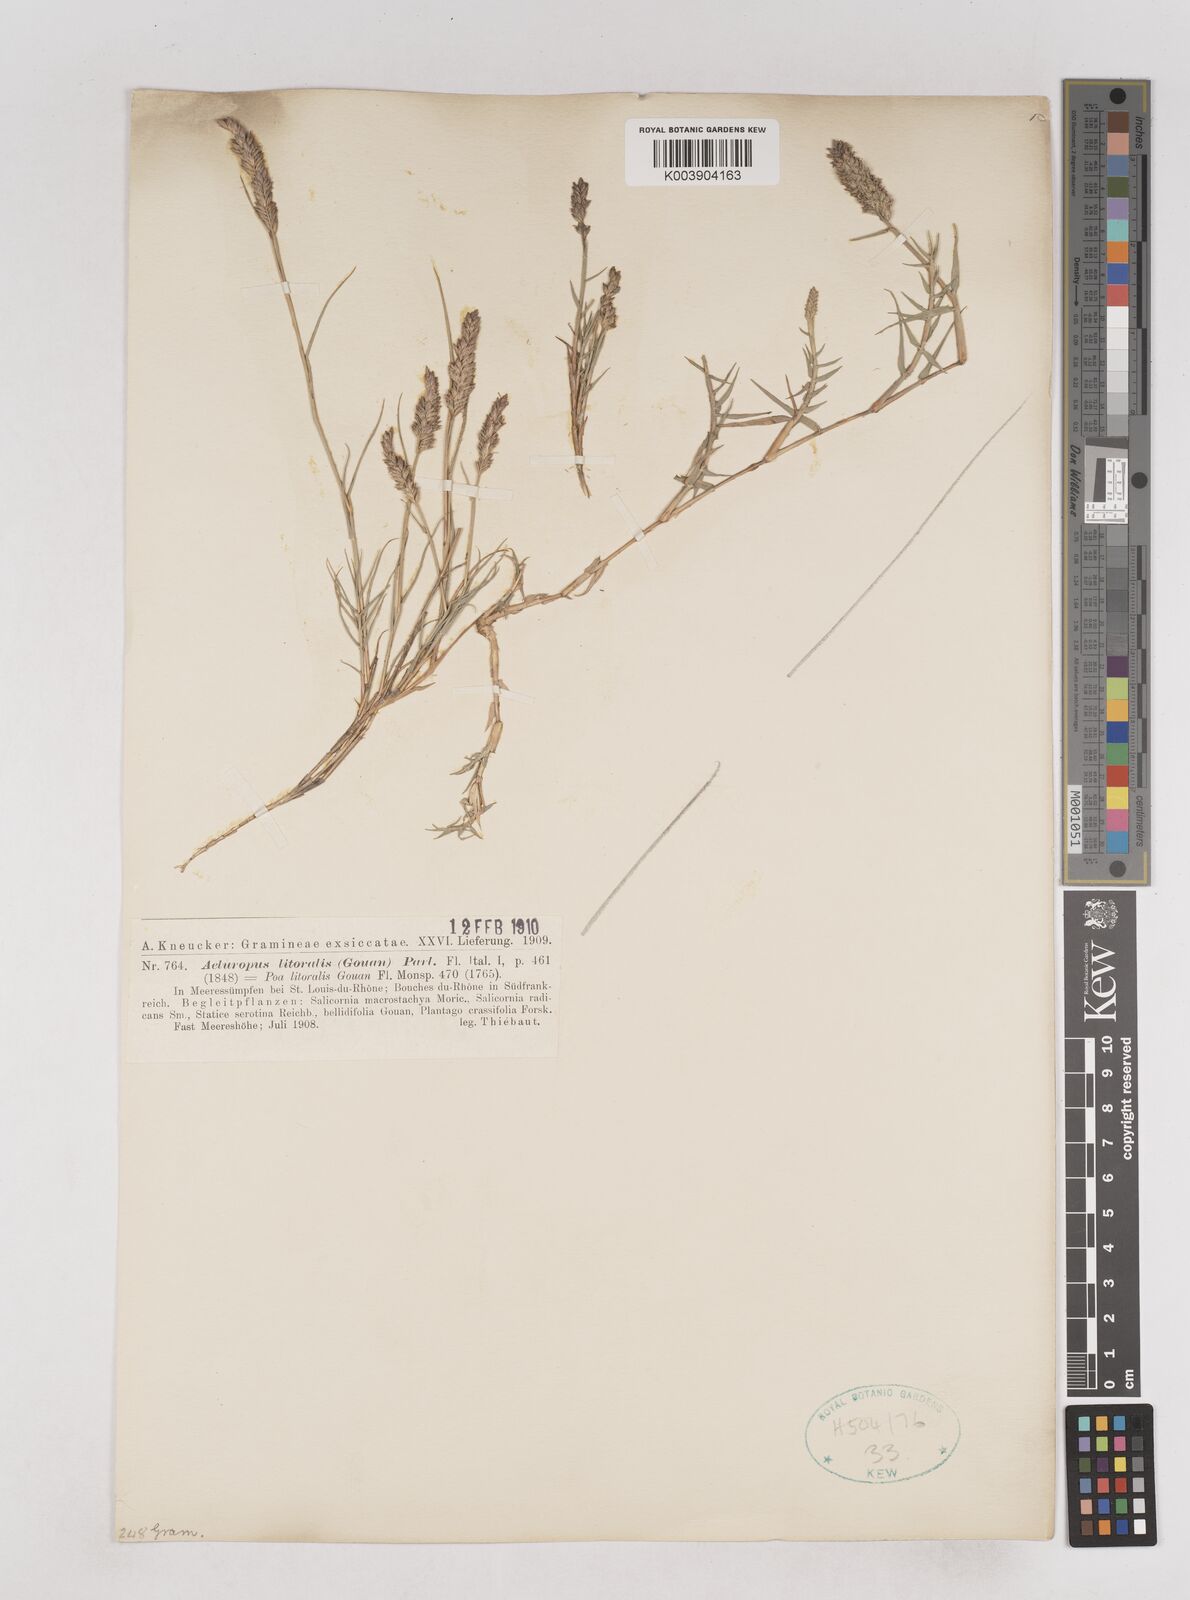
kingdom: Plantae
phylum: Tracheophyta
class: Liliopsida
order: Poales
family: Poaceae
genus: Aeluropus
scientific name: Aeluropus littoralis
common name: Indian walnut
